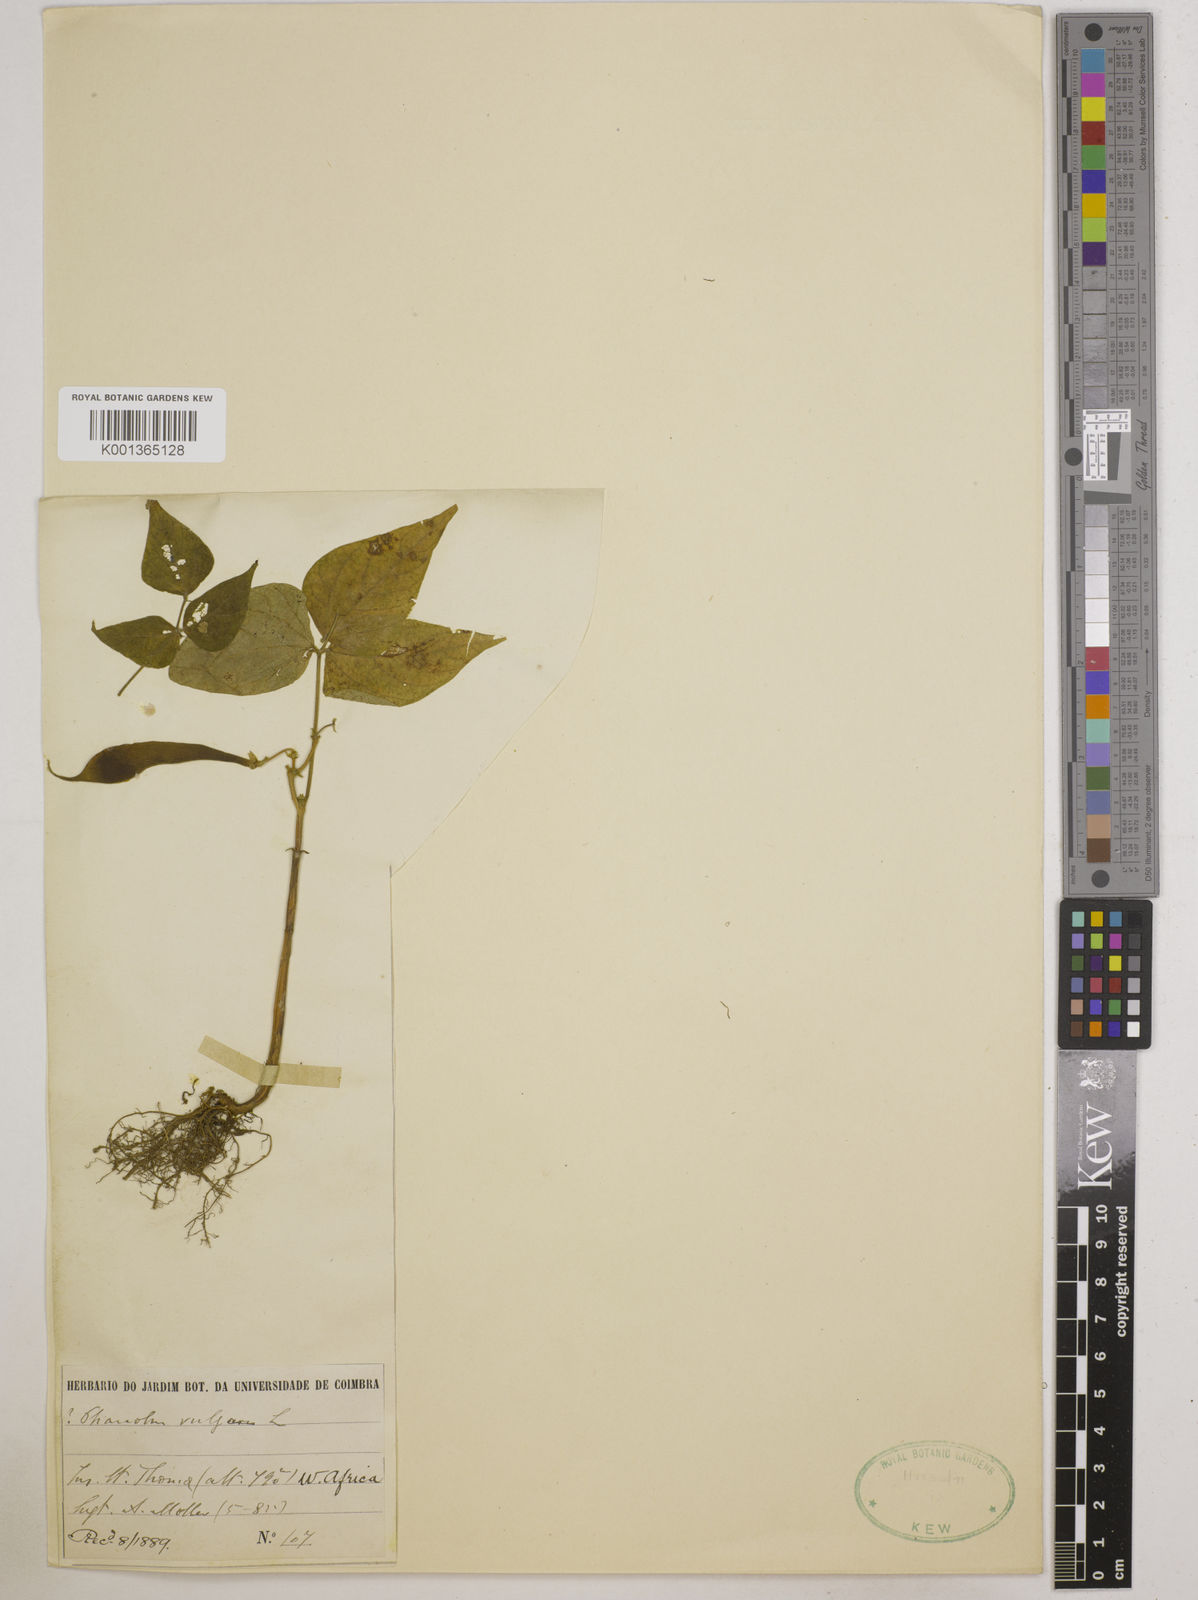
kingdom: Plantae
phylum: Tracheophyta
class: Magnoliopsida
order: Fabales
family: Fabaceae
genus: Phaseolus
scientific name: Phaseolus vulgaris
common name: Bean
